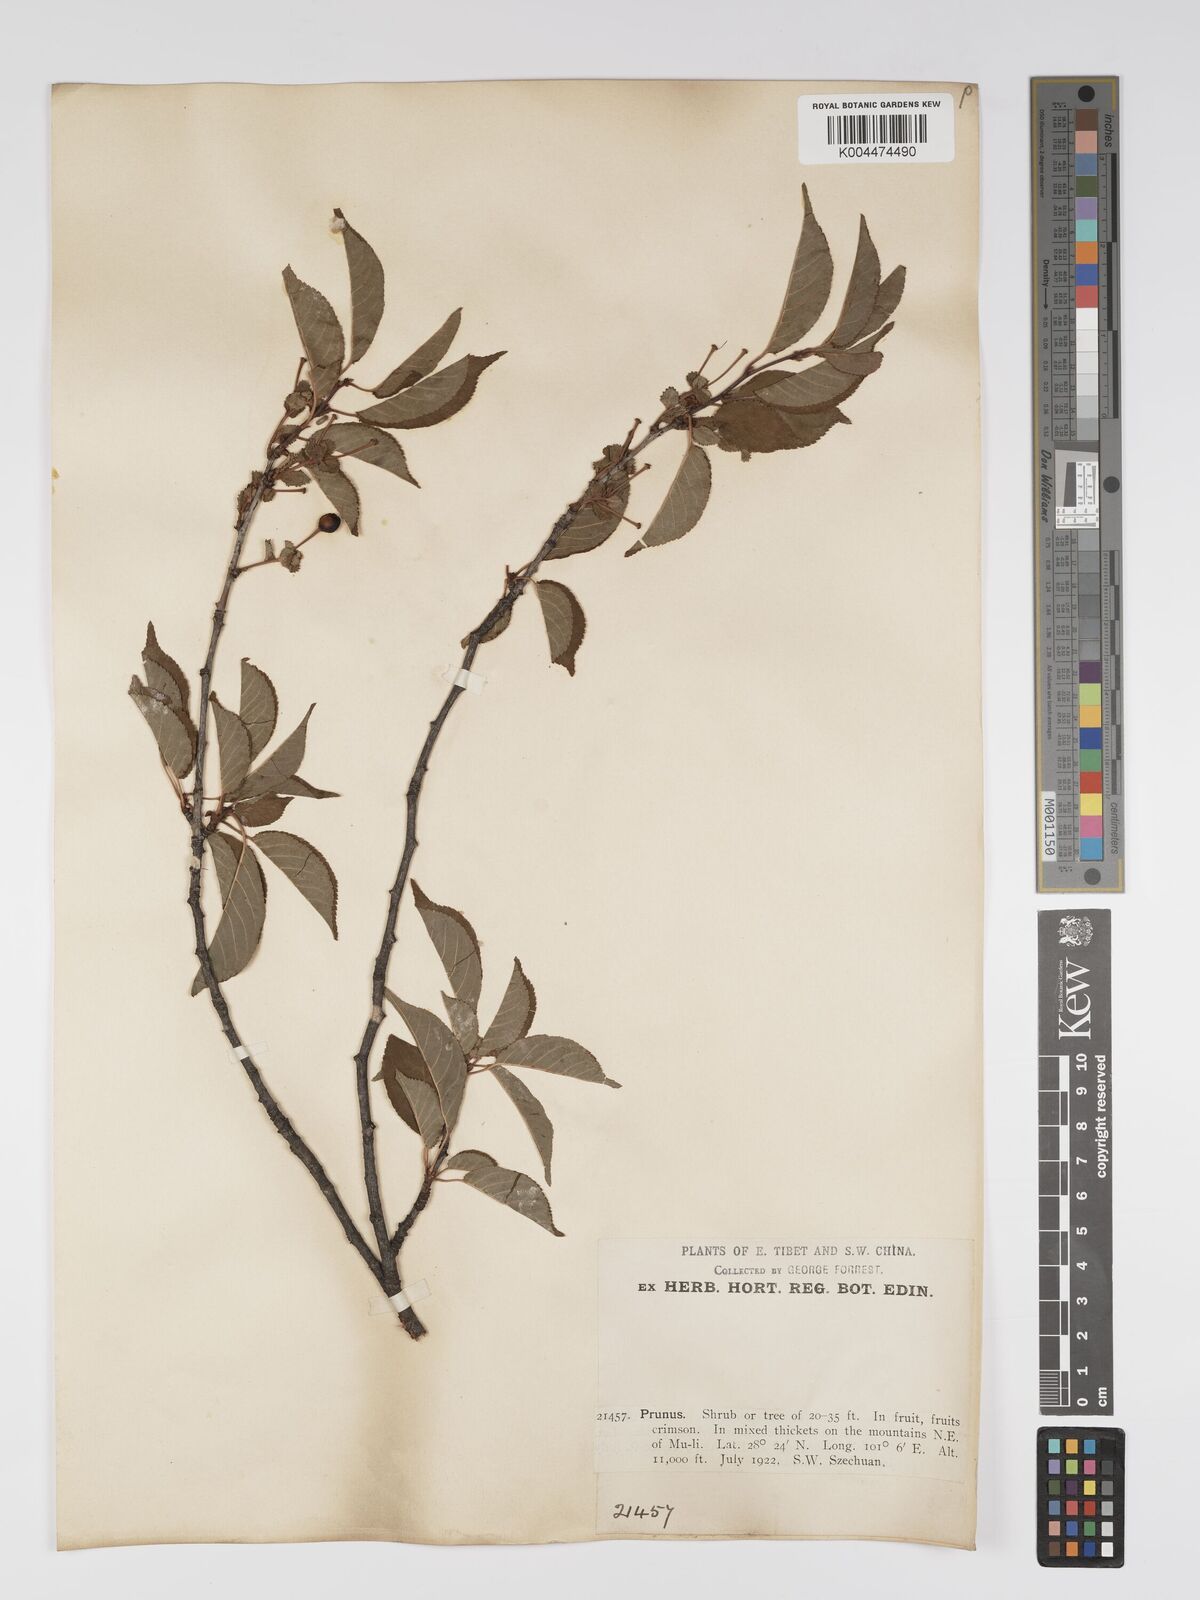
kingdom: Plantae
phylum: Tracheophyta
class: Magnoliopsida
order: Rosales
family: Rosaceae
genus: Prunus
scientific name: Prunus
